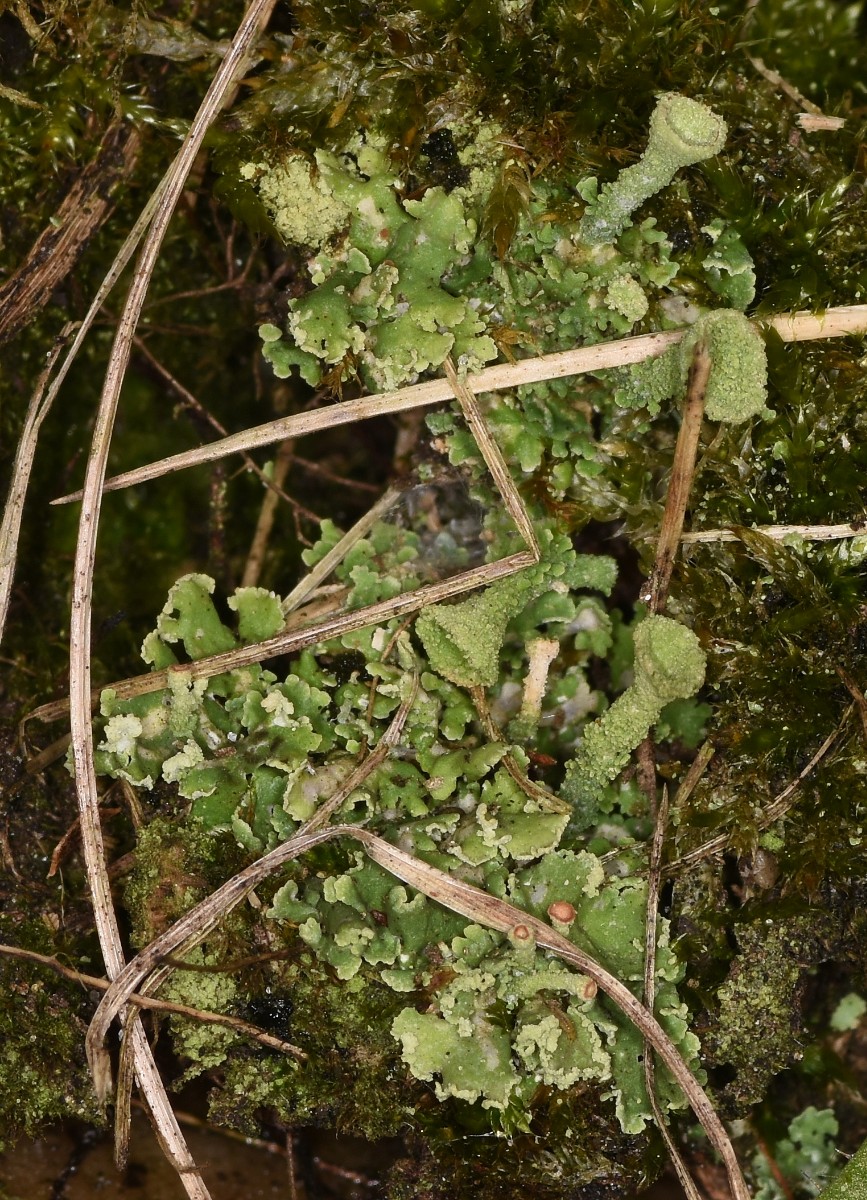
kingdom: Fungi
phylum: Ascomycota
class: Lecanoromycetes
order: Lecanorales
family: Cladoniaceae
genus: Cladonia
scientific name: Cladonia
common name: brungrøn bægerlav
